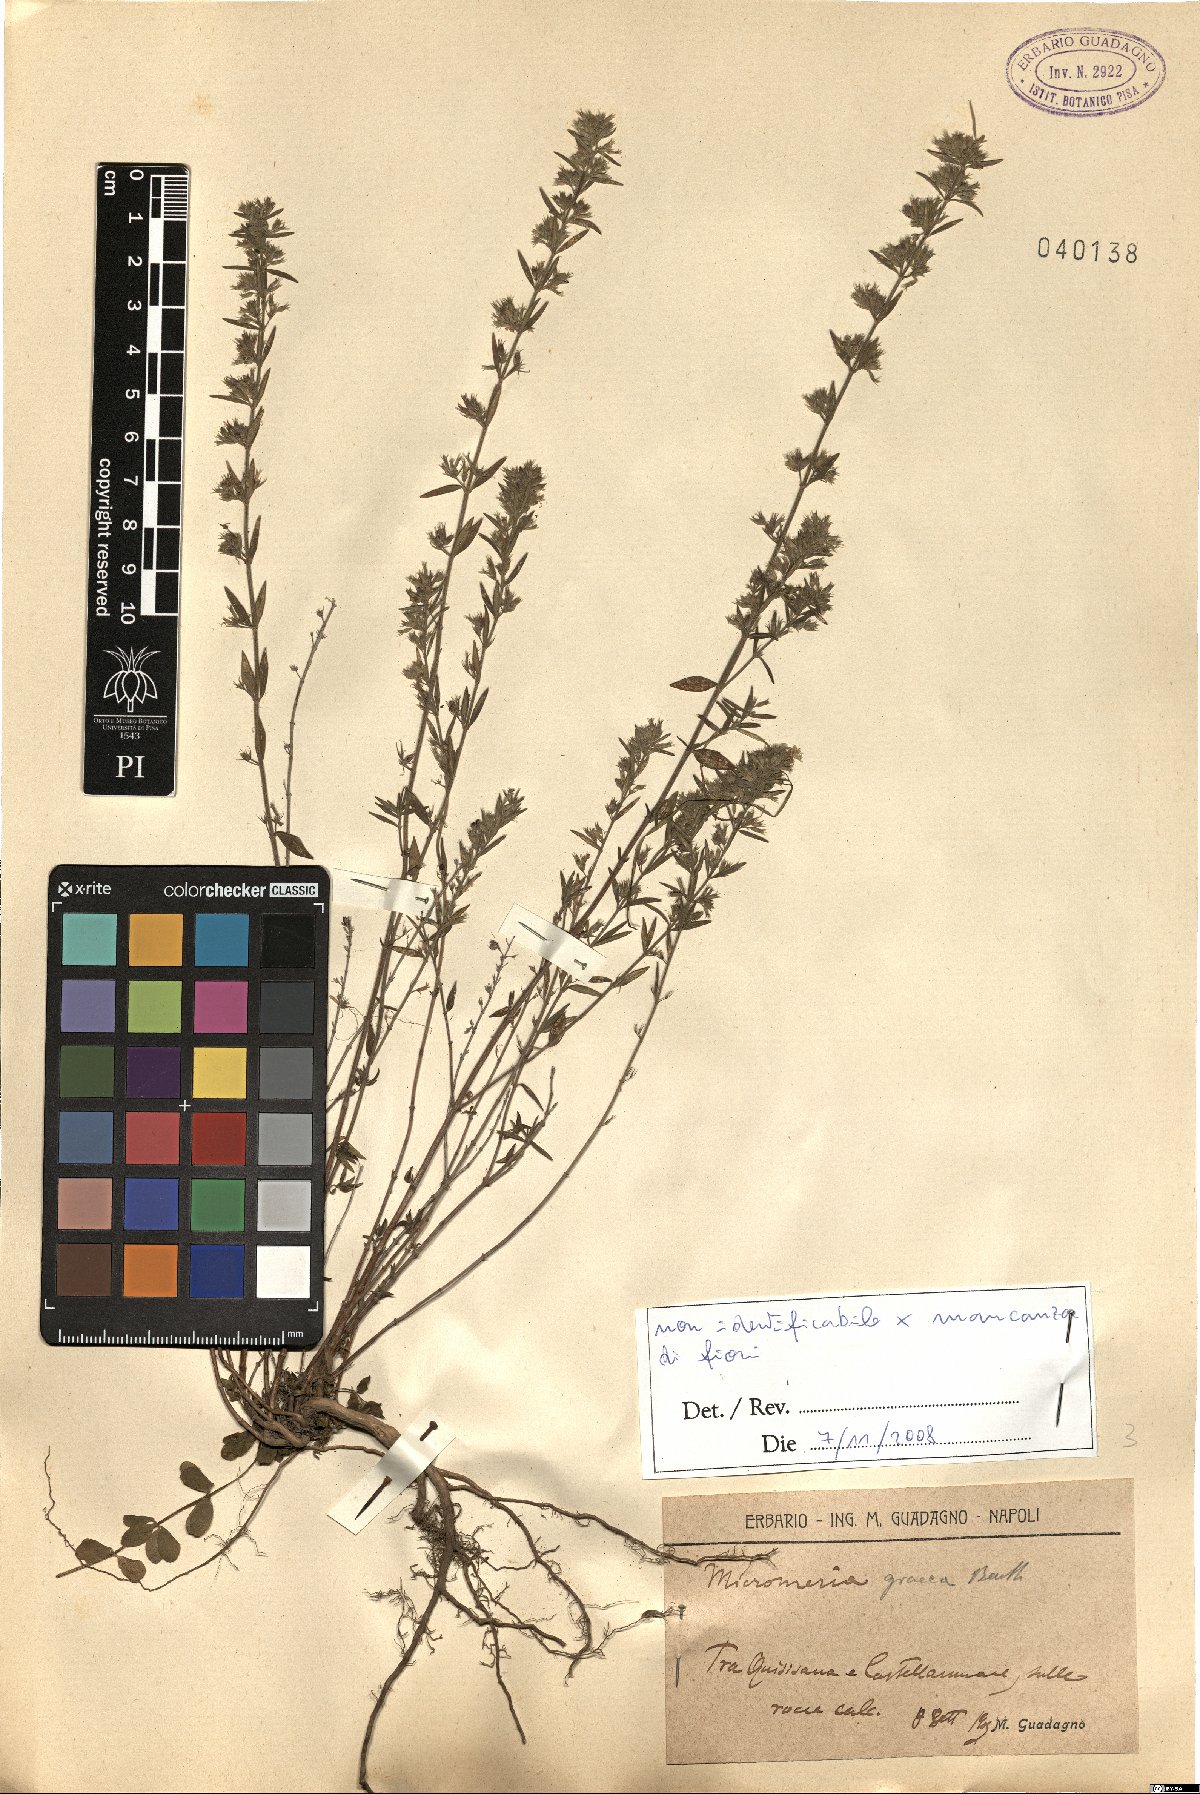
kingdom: Plantae
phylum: Tracheophyta
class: Magnoliopsida
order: Lamiales
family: Lamiaceae
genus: Micromeria
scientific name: Micromeria graeca
